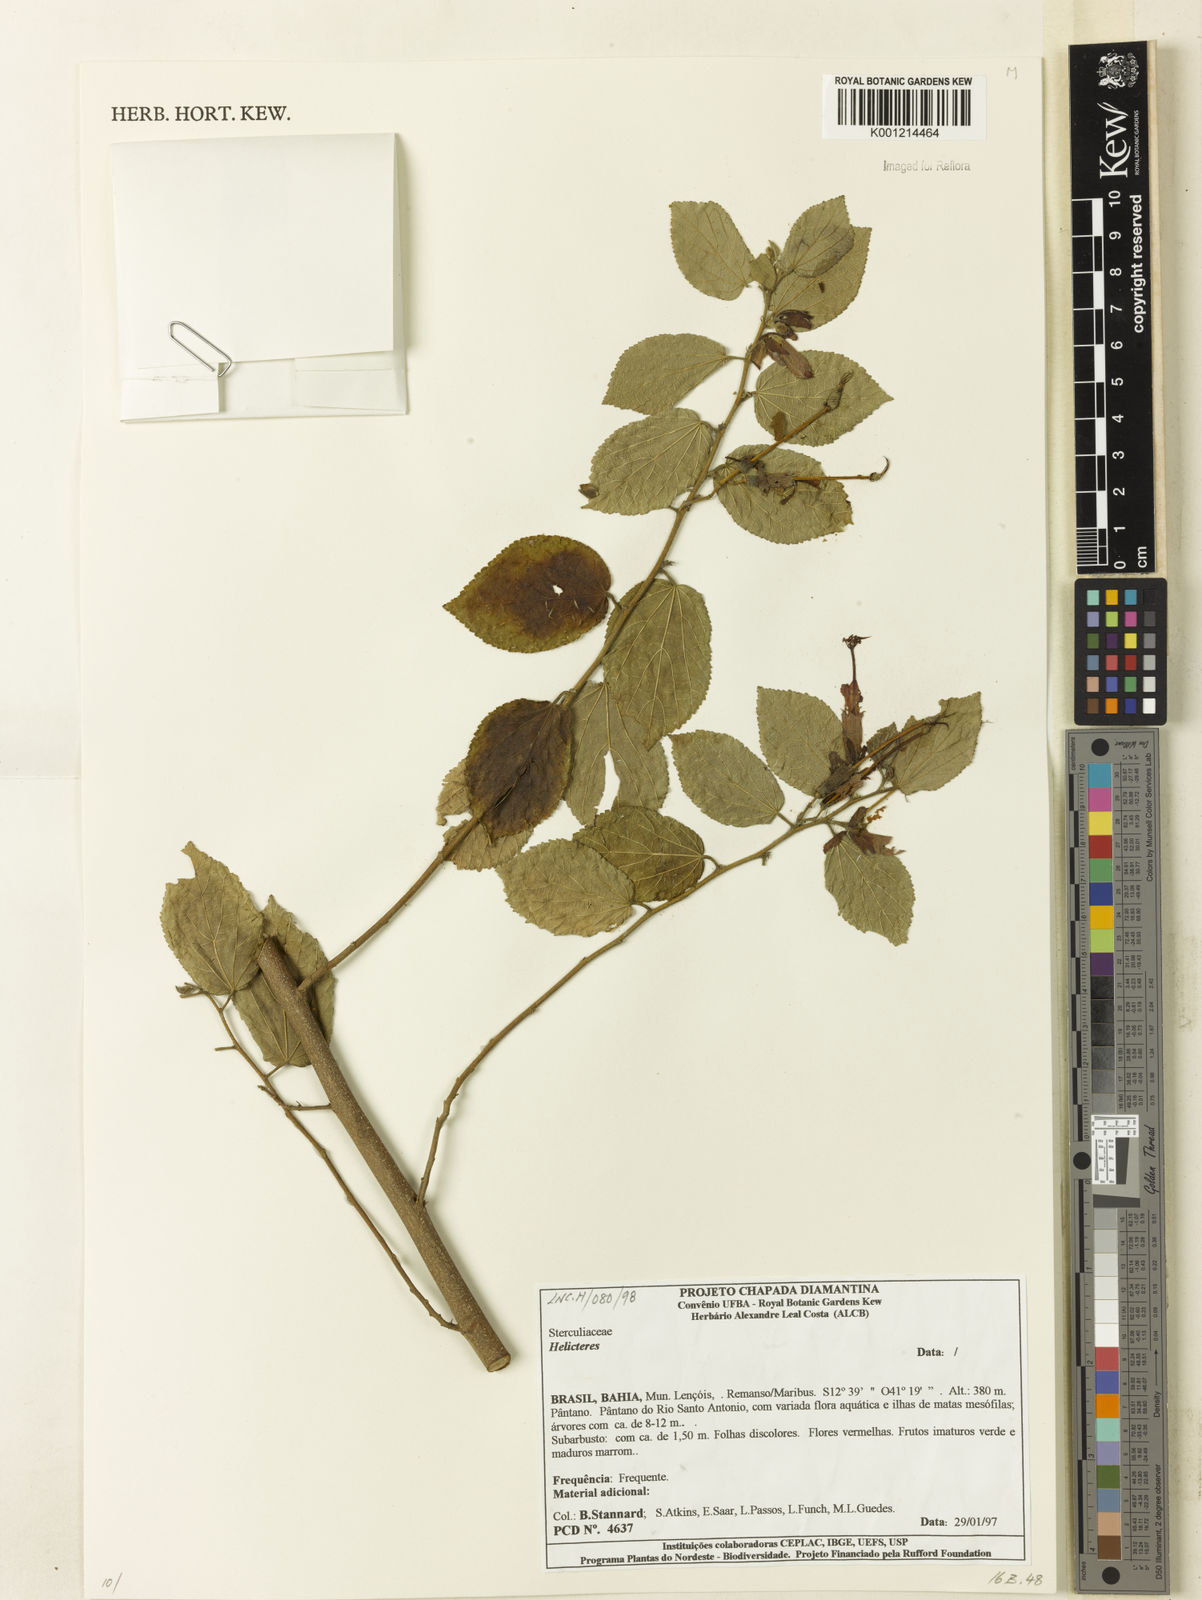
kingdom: Plantae
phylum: Tracheophyta
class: Magnoliopsida
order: Malvales
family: Malvaceae
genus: Helicteres
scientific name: Helicteres
